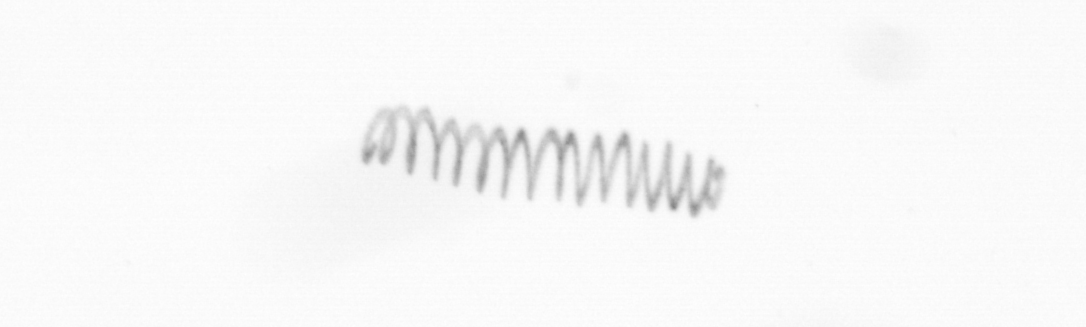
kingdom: Chromista
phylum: Ochrophyta
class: Bacillariophyceae
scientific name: Bacillariophyceae
